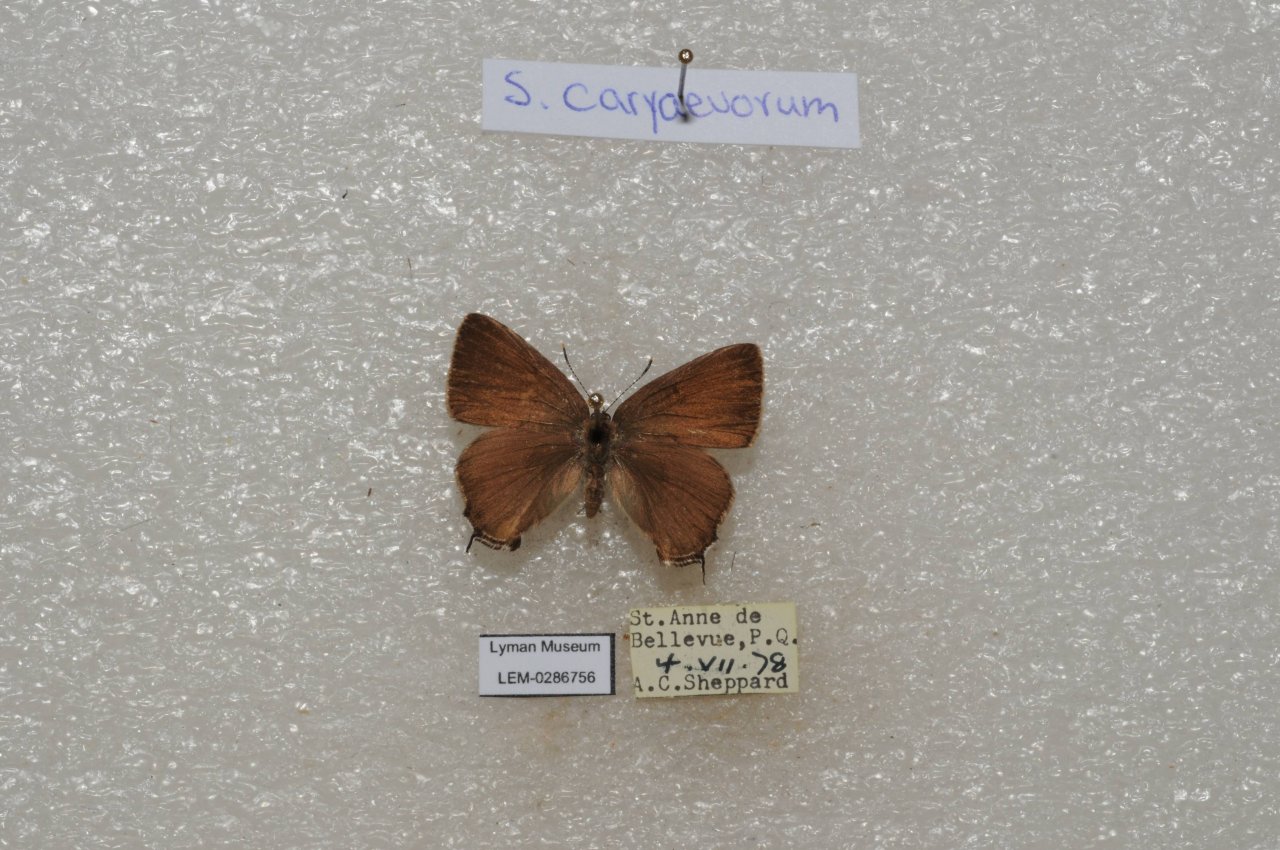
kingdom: Animalia
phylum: Arthropoda
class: Insecta
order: Lepidoptera
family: Lycaenidae
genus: Strymon
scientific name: Strymon caryaevorus
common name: Hickory Hairstreak
